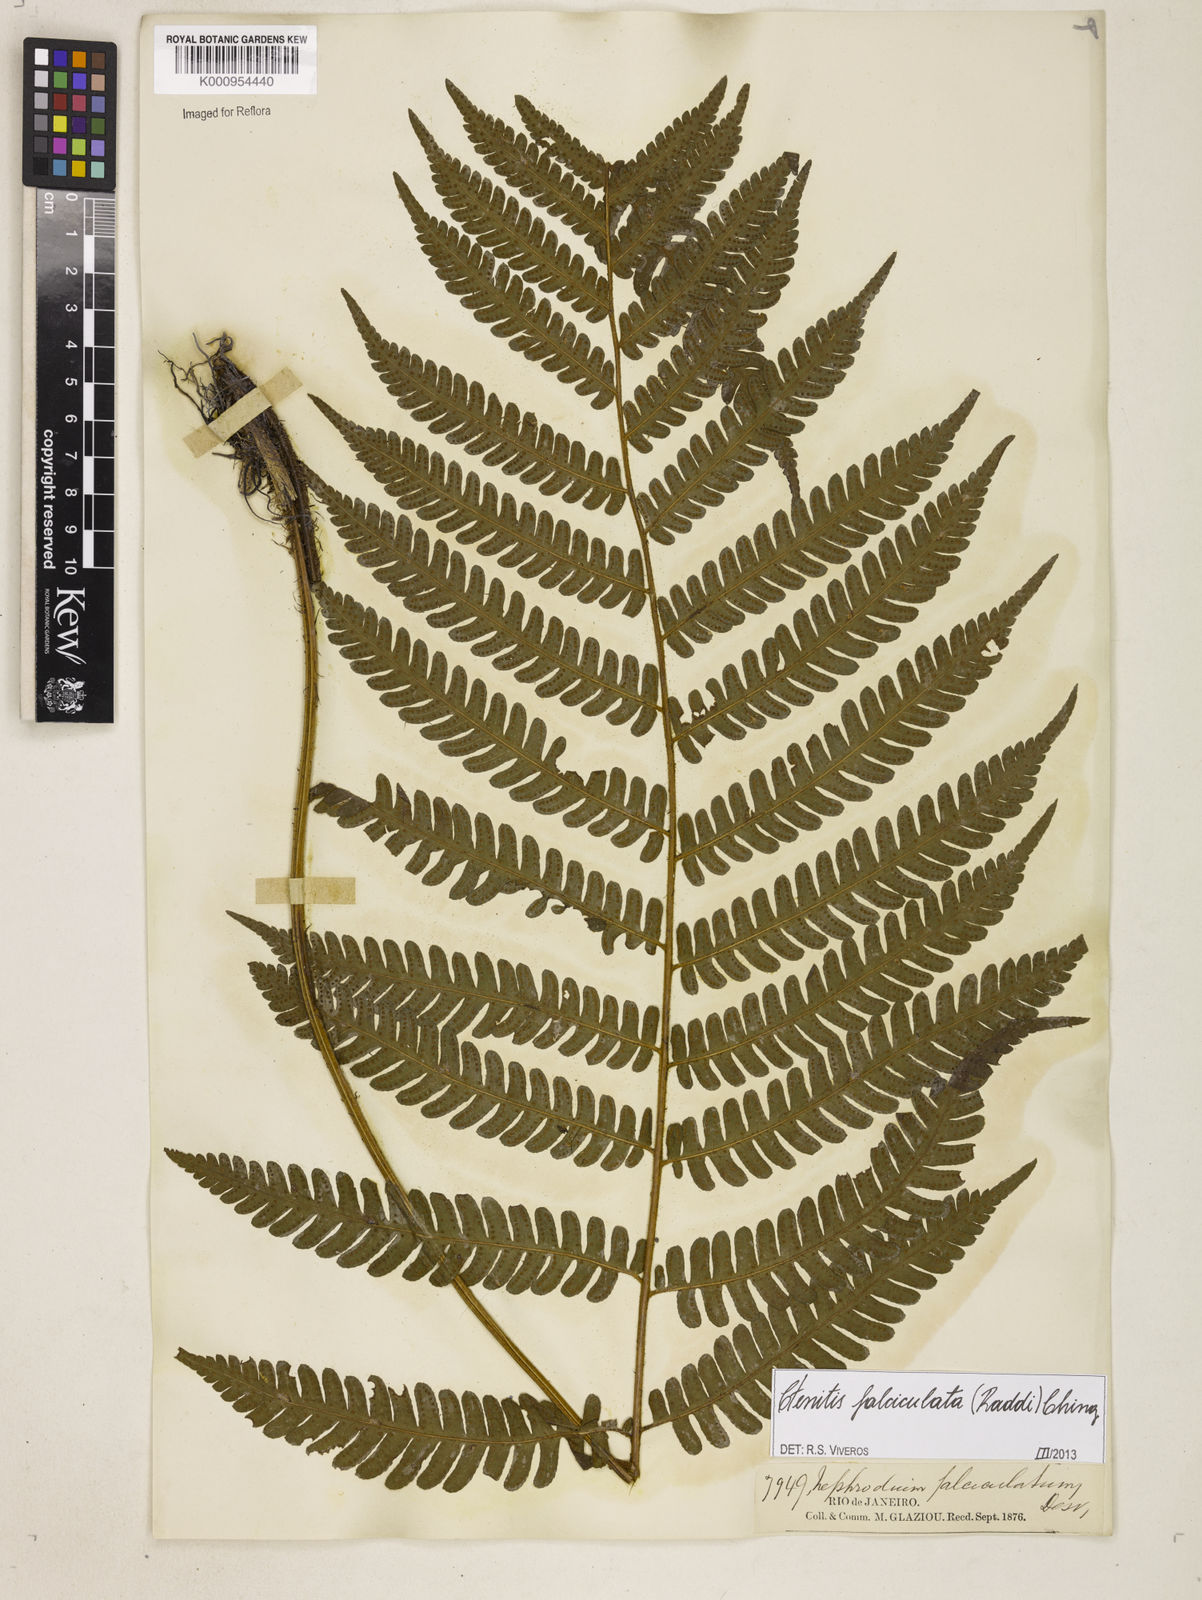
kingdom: Plantae
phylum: Tracheophyta
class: Polypodiopsida
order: Polypodiales
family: Dryopteridaceae
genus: Ctenitis
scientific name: Ctenitis falciculata
